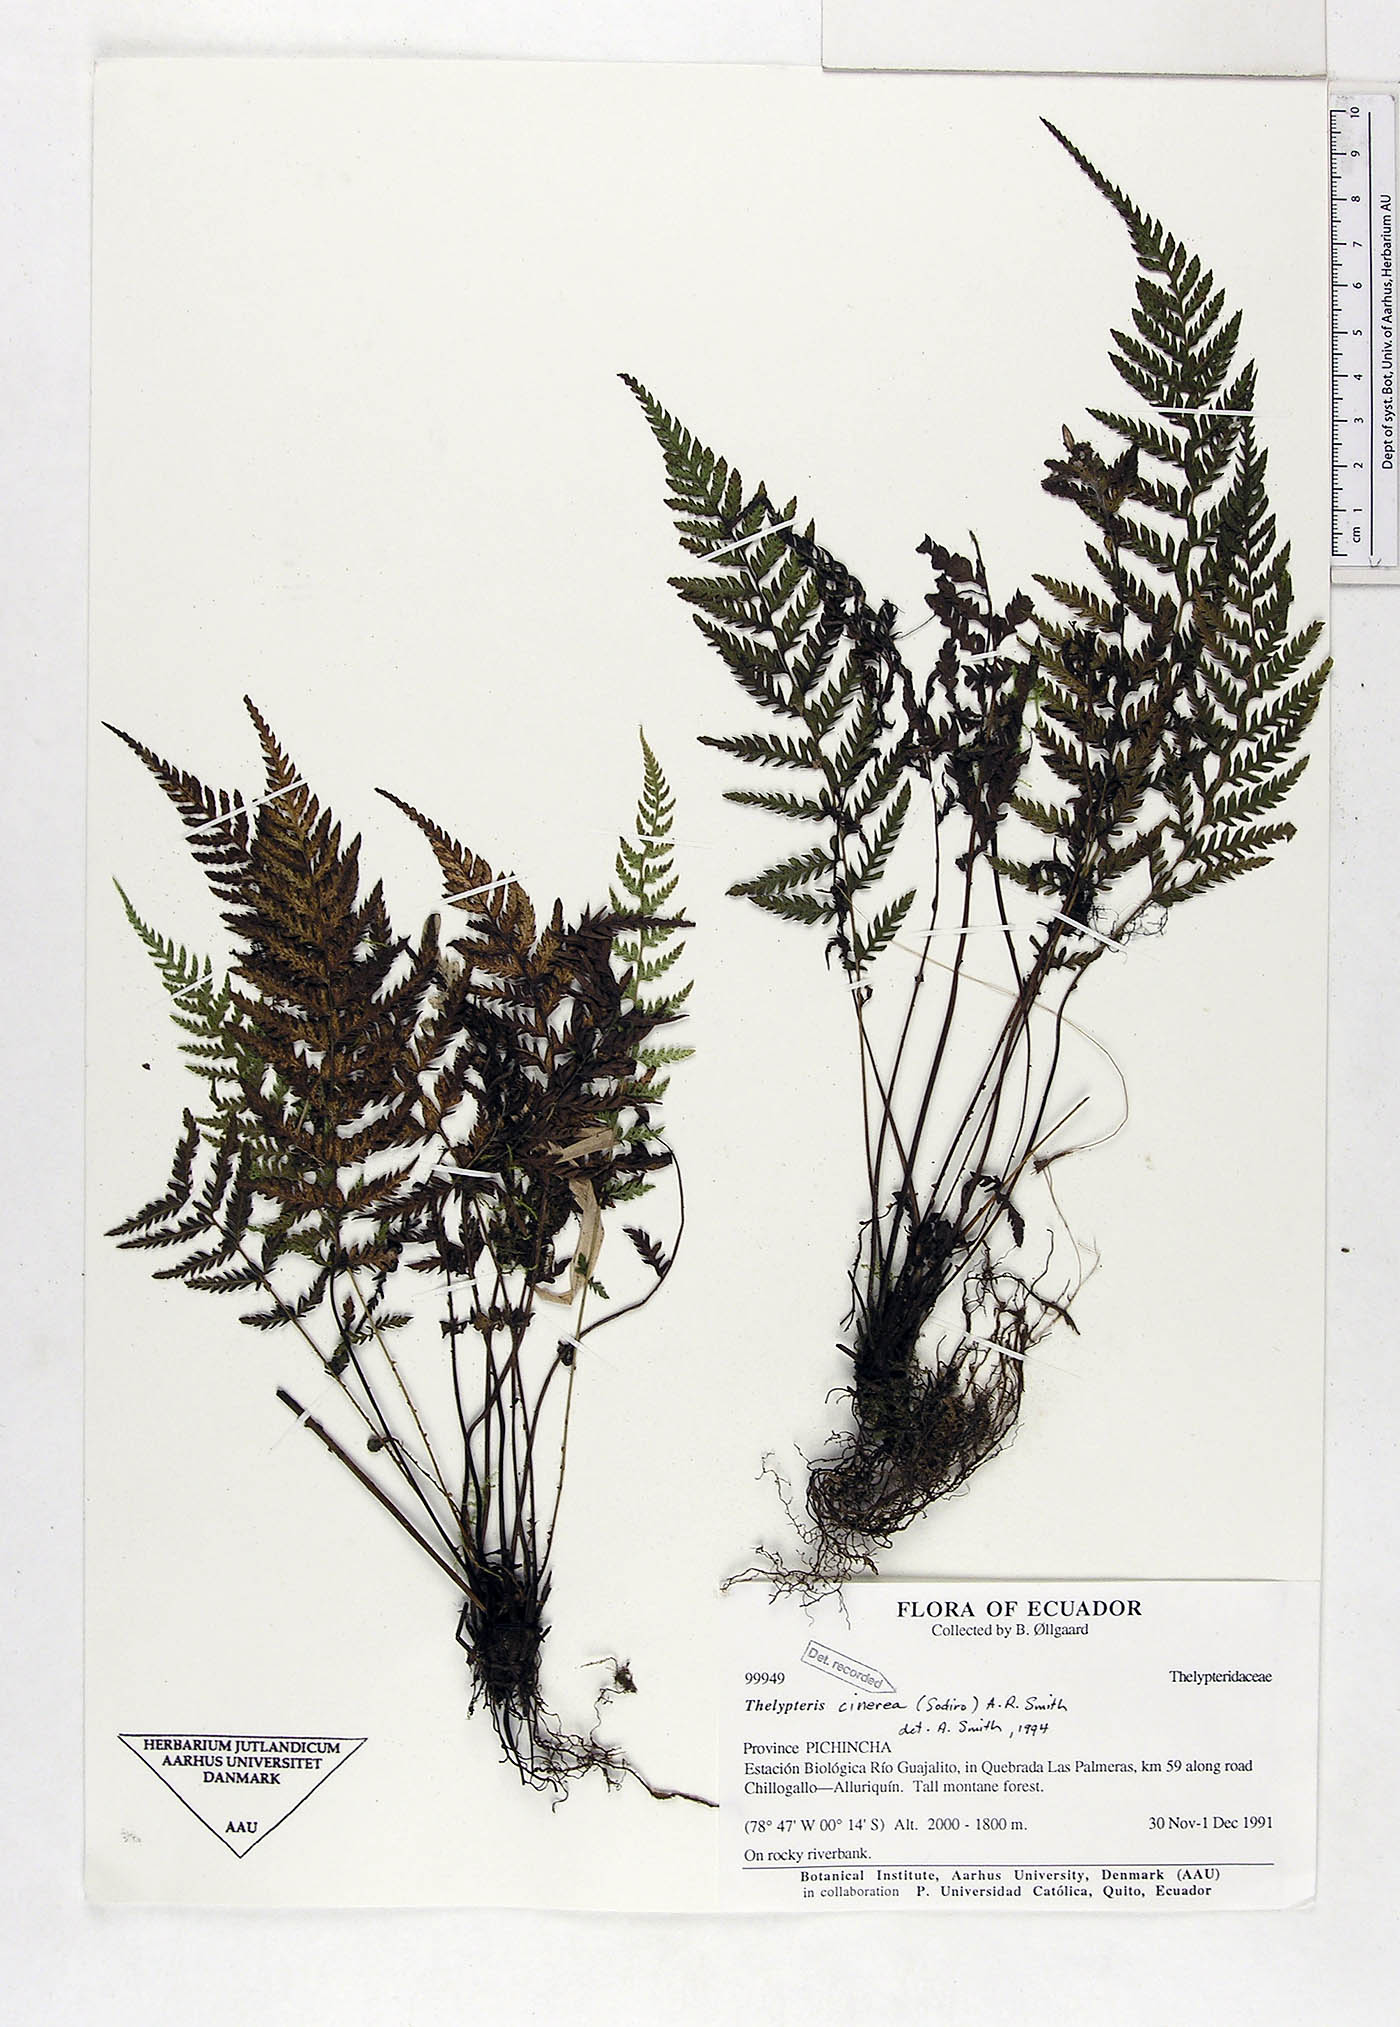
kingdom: Plantae
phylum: Tracheophyta
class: Polypodiopsida
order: Polypodiales
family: Thelypteridaceae
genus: Amauropelta
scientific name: Amauropelta cinerea
